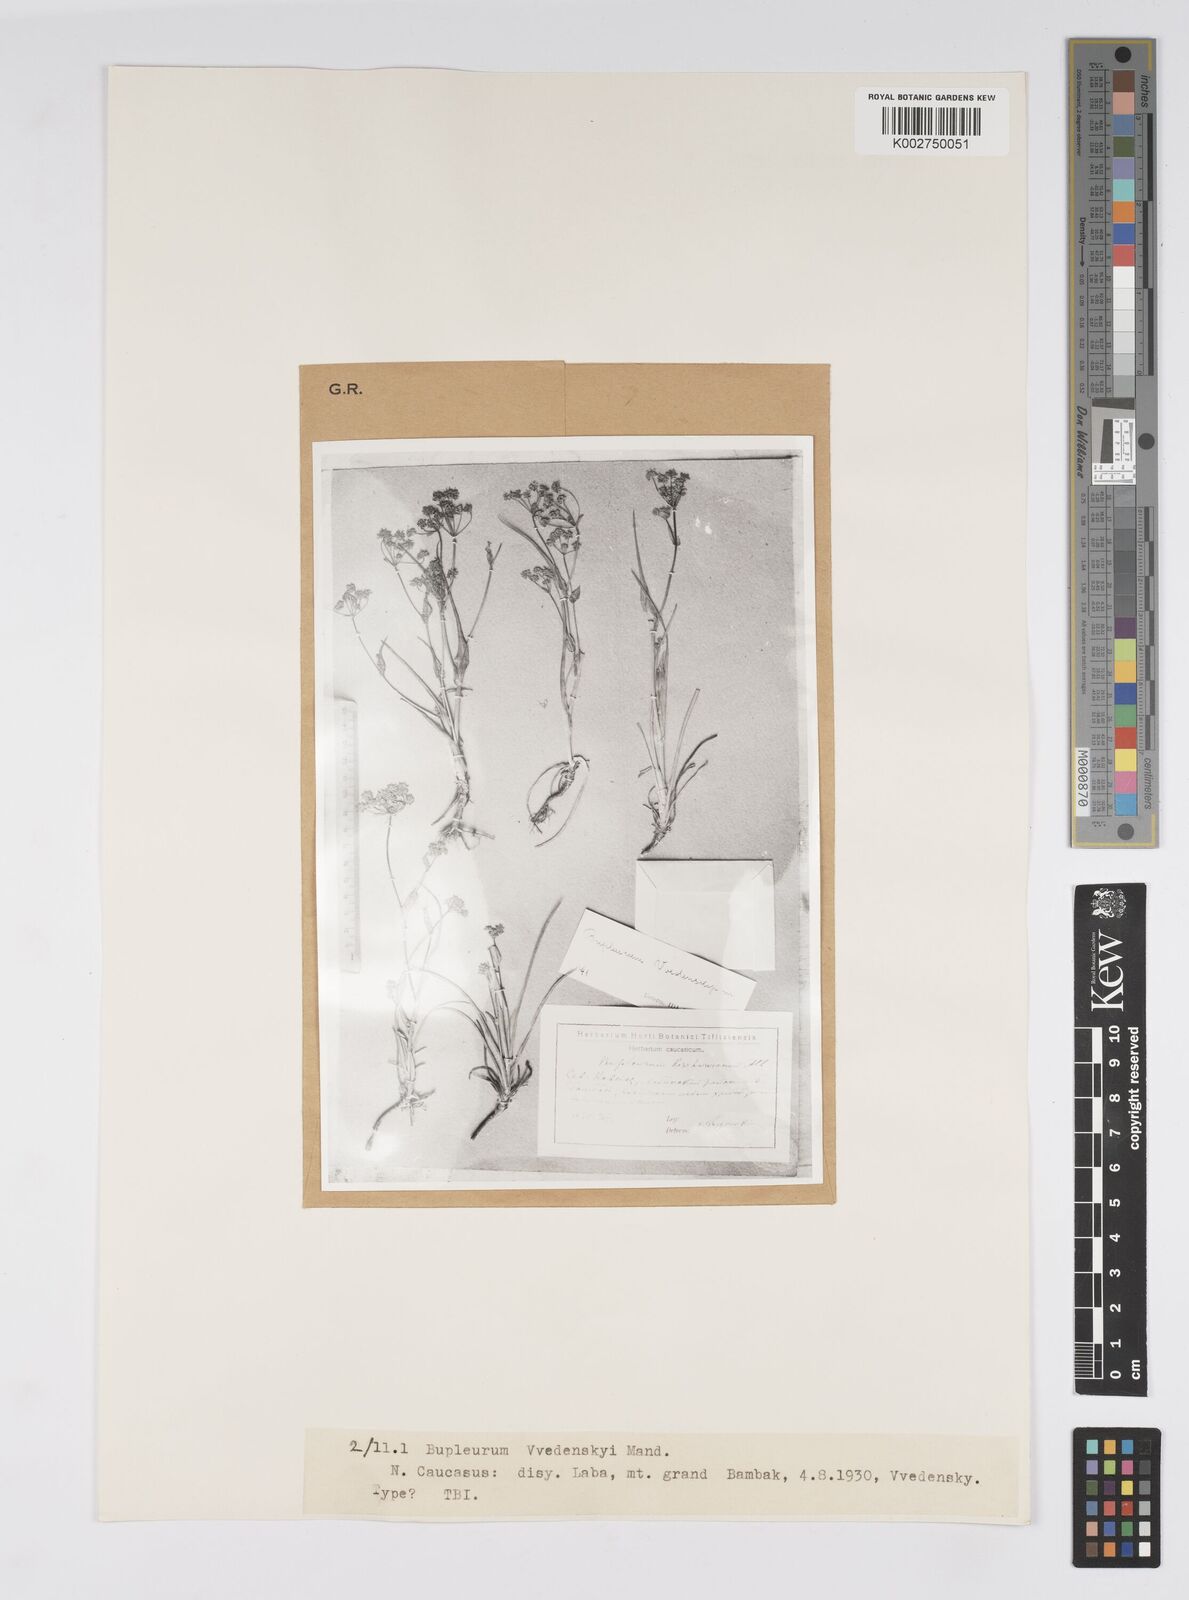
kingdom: Plantae
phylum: Tracheophyta
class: Magnoliopsida
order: Apiales
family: Apiaceae
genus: Bupleurum
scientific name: Bupleurum rischawii
